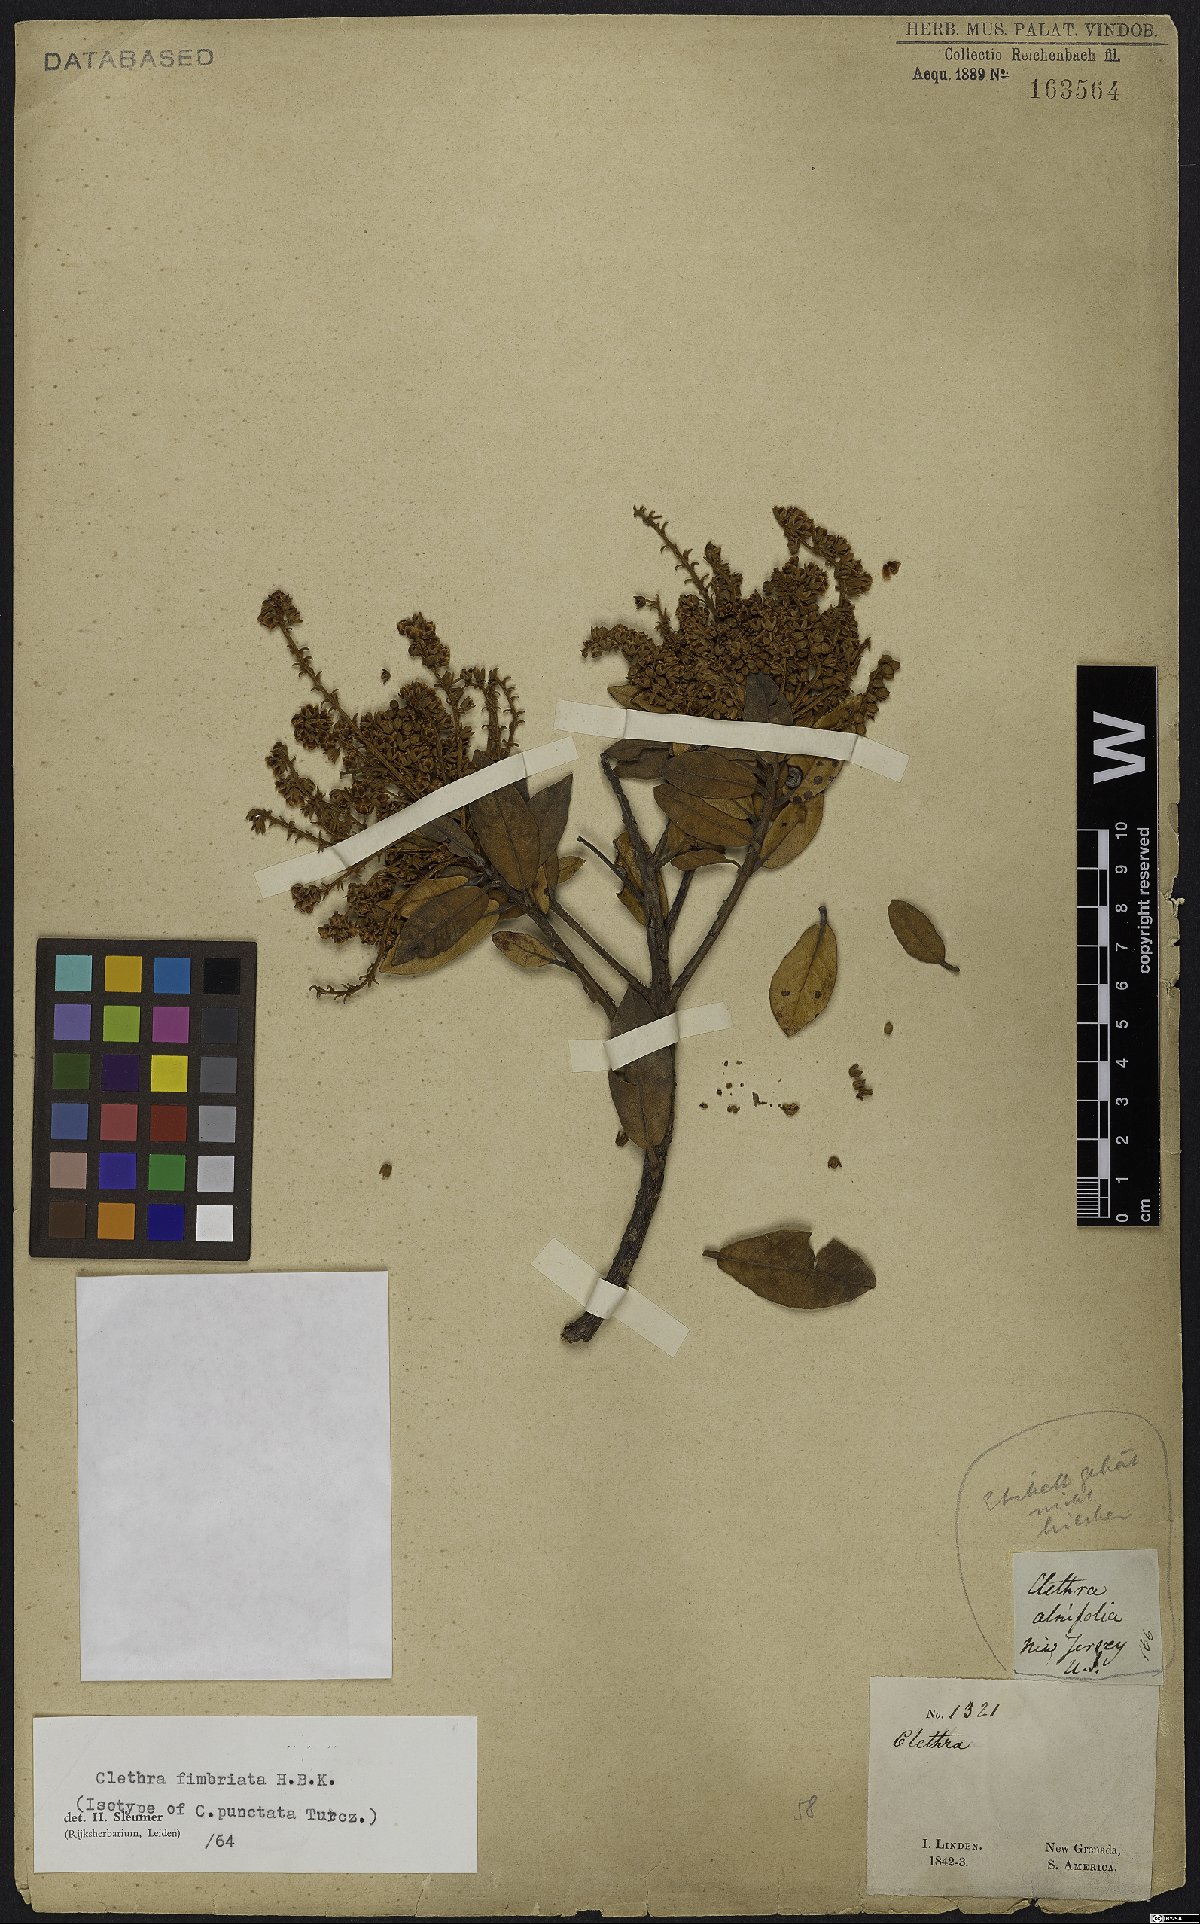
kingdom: Plantae
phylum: Tracheophyta
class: Magnoliopsida
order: Ericales
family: Clethraceae
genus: Clethra
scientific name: Clethra fimbriata
